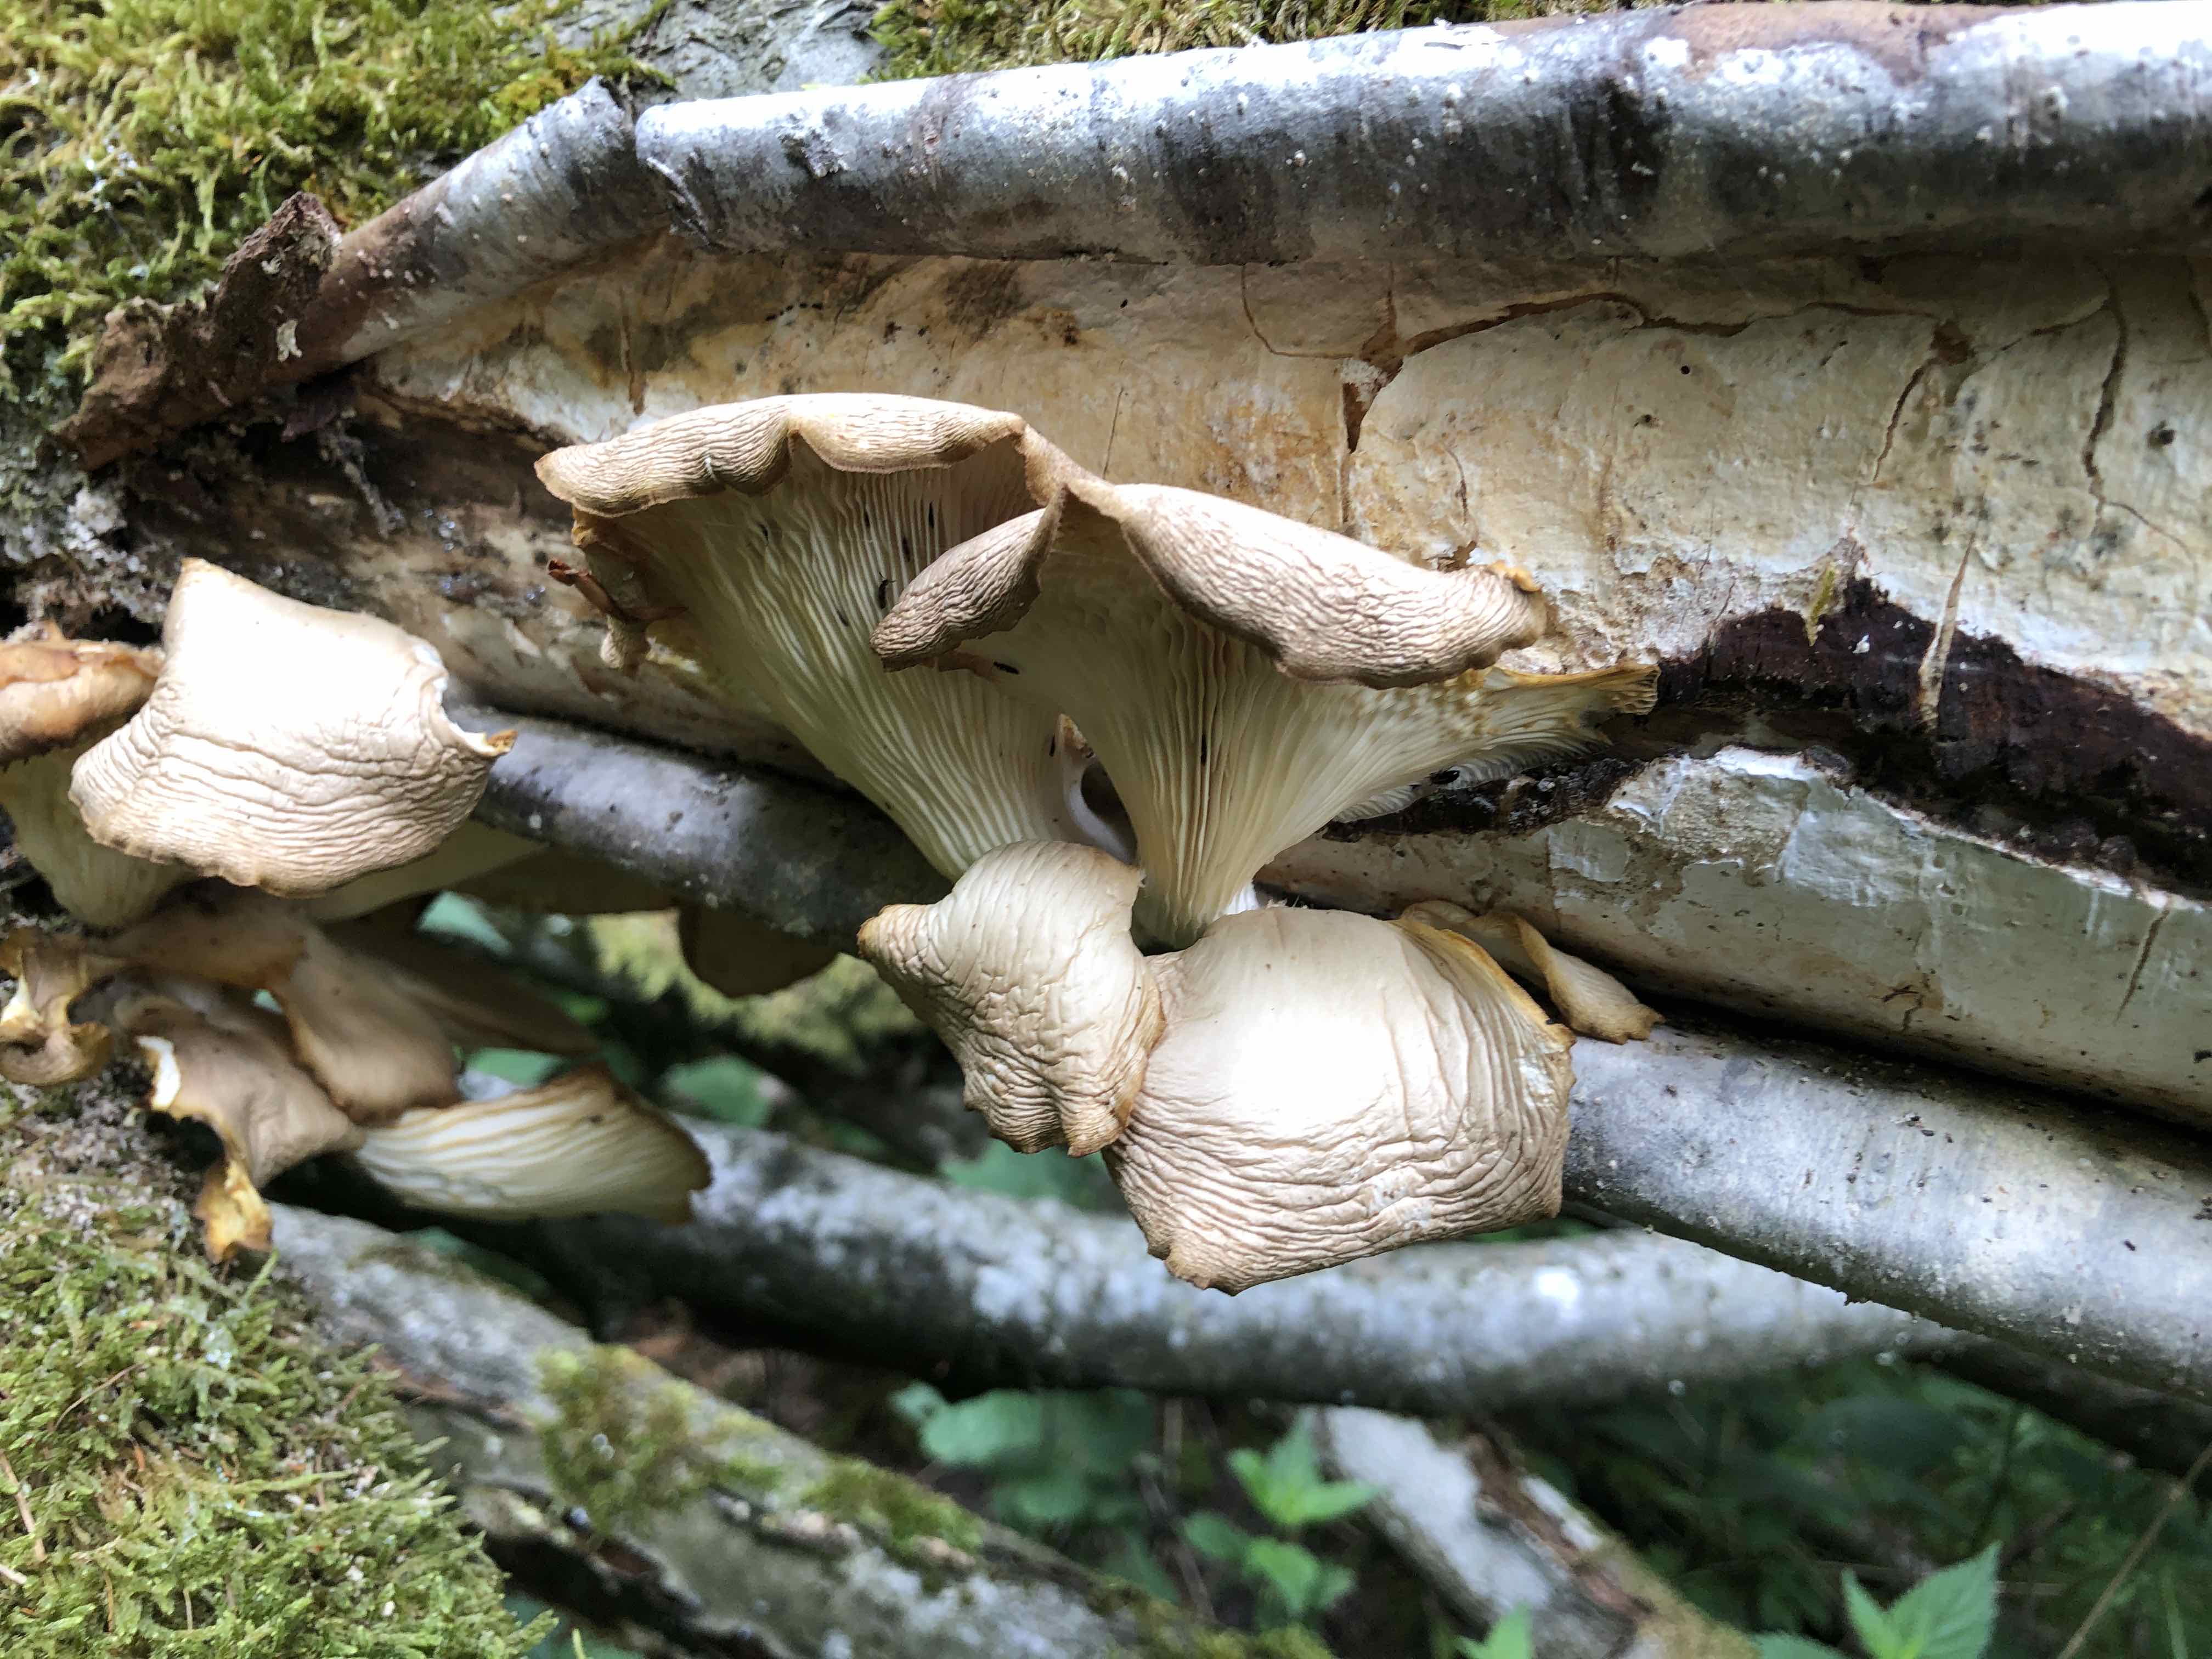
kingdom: Fungi
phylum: Basidiomycota
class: Agaricomycetes
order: Agaricales
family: Pleurotaceae
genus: Pleurotus
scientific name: Pleurotus pulmonarius
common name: sommer-østershat
